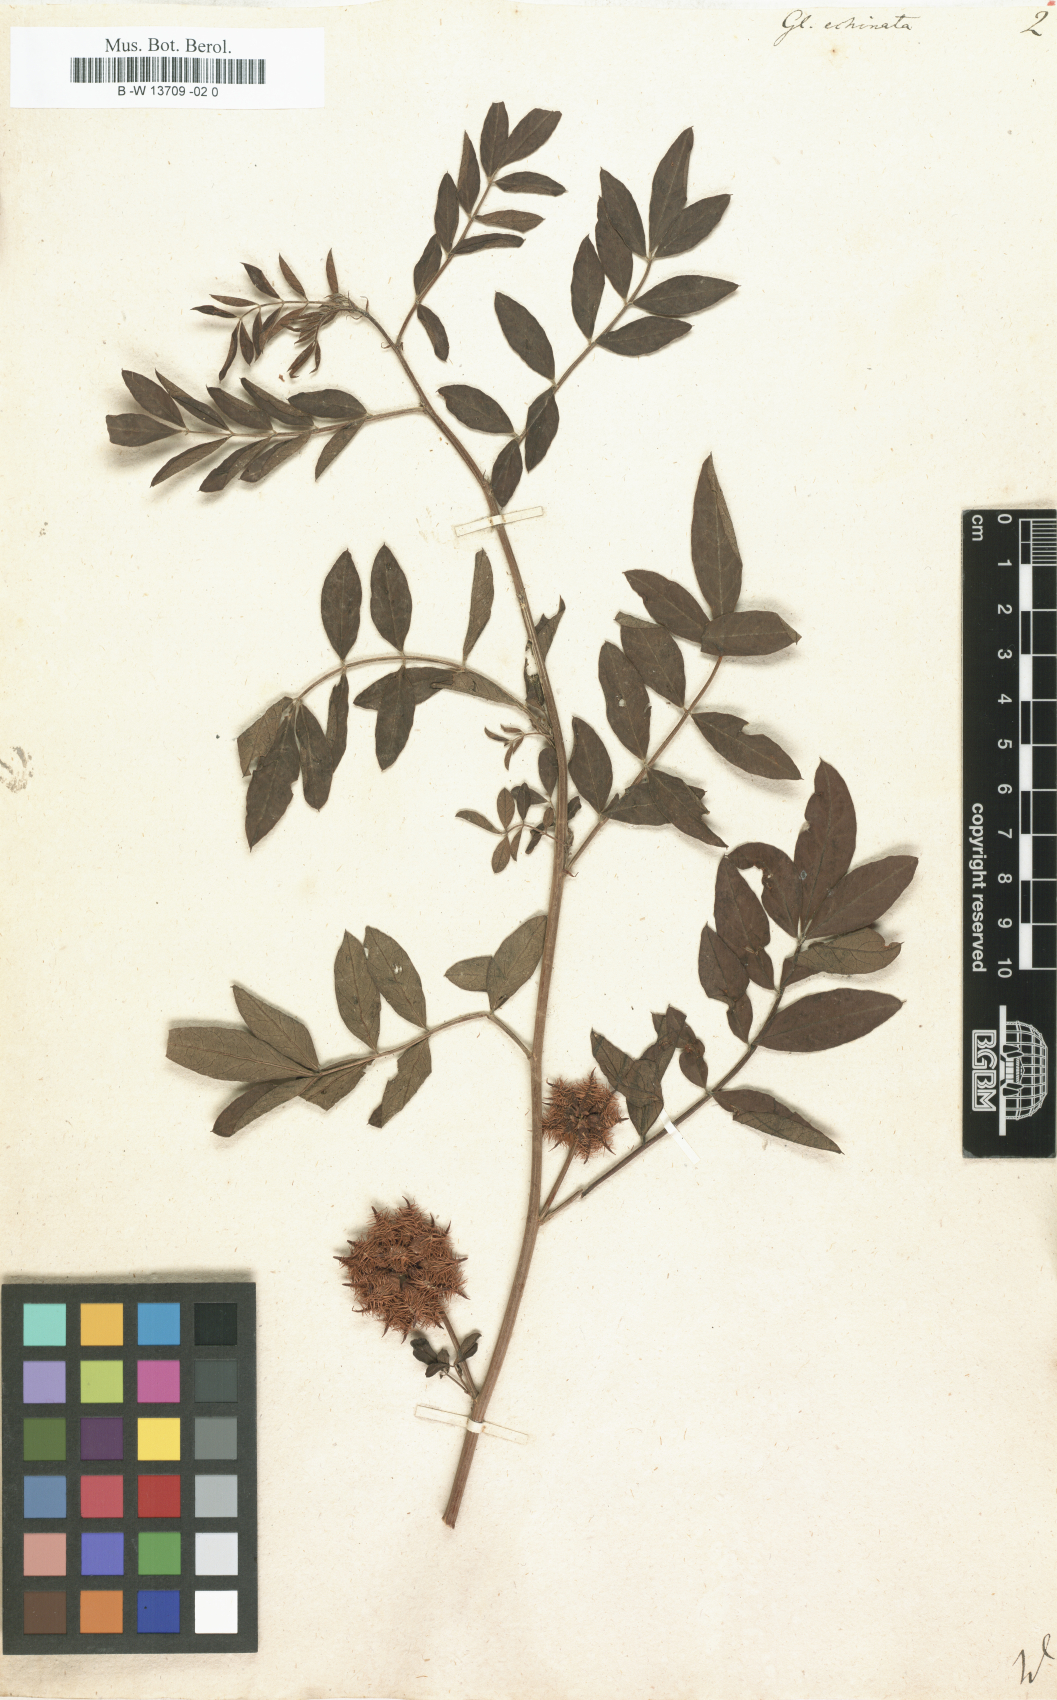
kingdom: Plantae
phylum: Tracheophyta
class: Magnoliopsida
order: Fabales
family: Fabaceae
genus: Glycyrrhiza
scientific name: Glycyrrhiza echinata
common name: German liquorice
